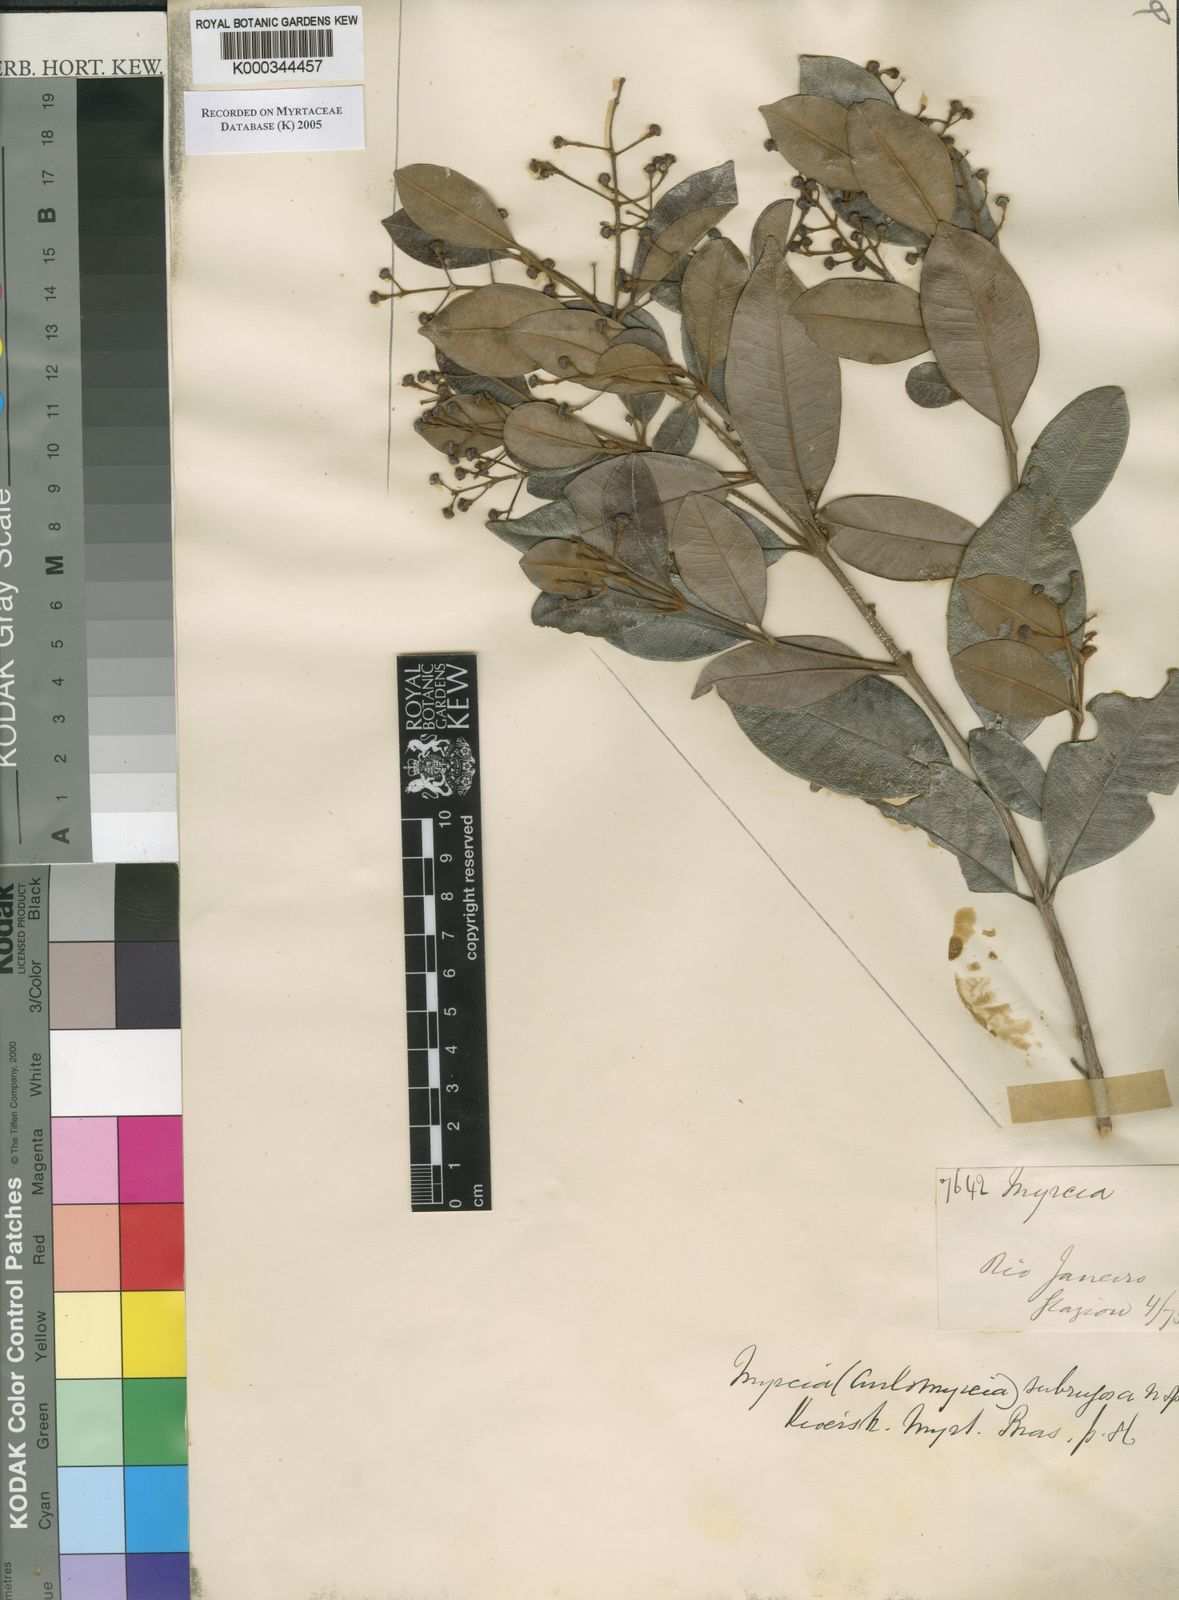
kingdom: Plantae
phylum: Tracheophyta
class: Magnoliopsida
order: Myrtales
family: Myrtaceae
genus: Myrcia
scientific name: Myrcia subrugosa
